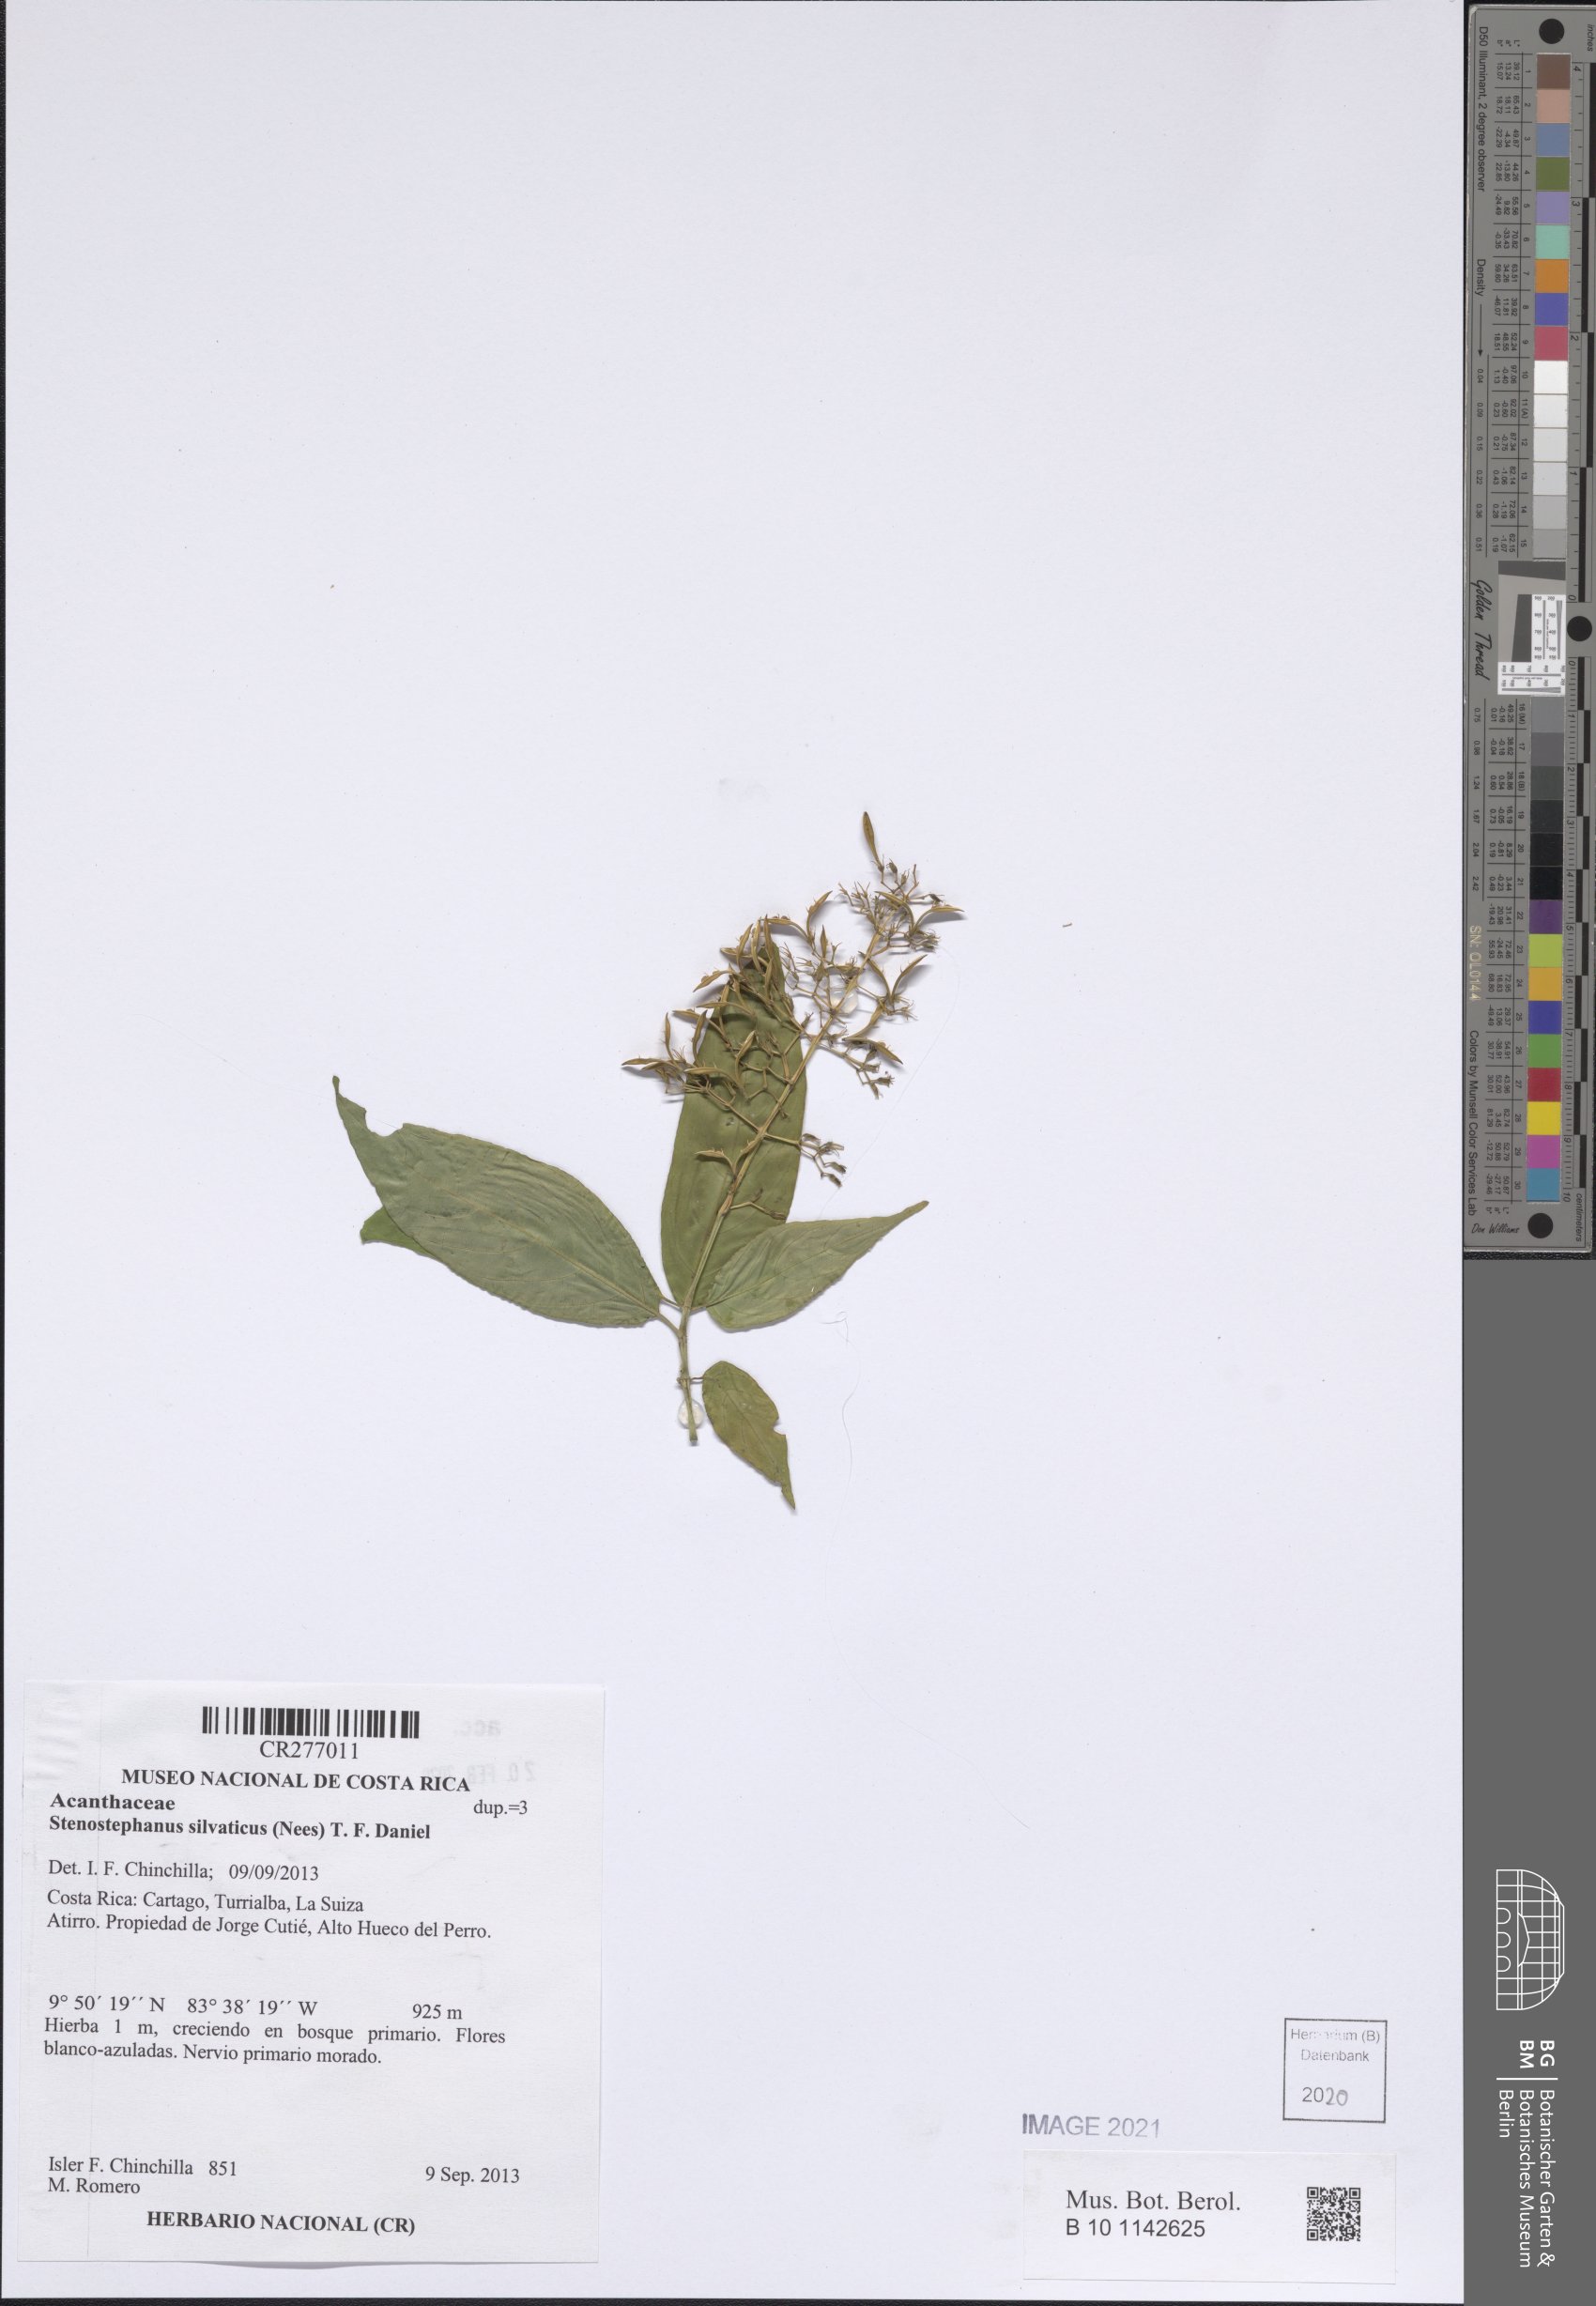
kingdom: Plantae
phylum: Tracheophyta
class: Magnoliopsida
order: Lamiales
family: Acanthaceae
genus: Stenostephanus
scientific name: Stenostephanus silvaticus
